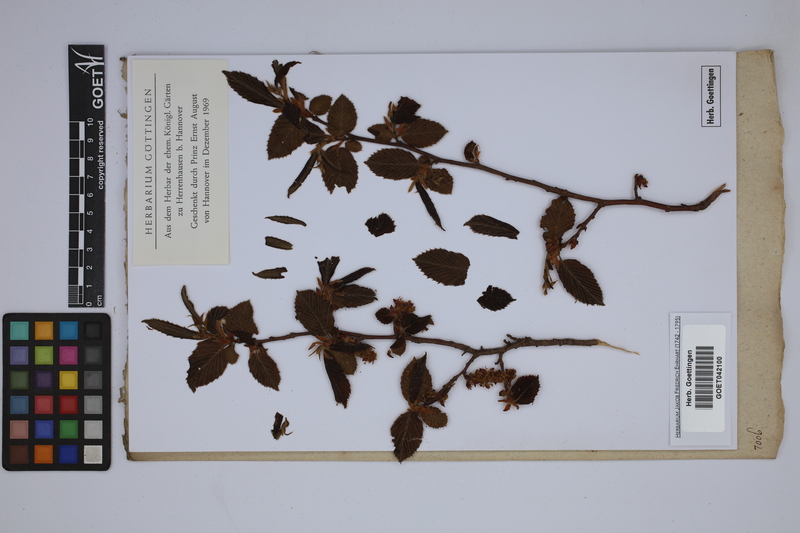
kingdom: Plantae
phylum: Tracheophyta
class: Magnoliopsida
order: Fagales
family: Betulaceae
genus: Carpinus
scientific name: Carpinus betulus
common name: Hornbeam
